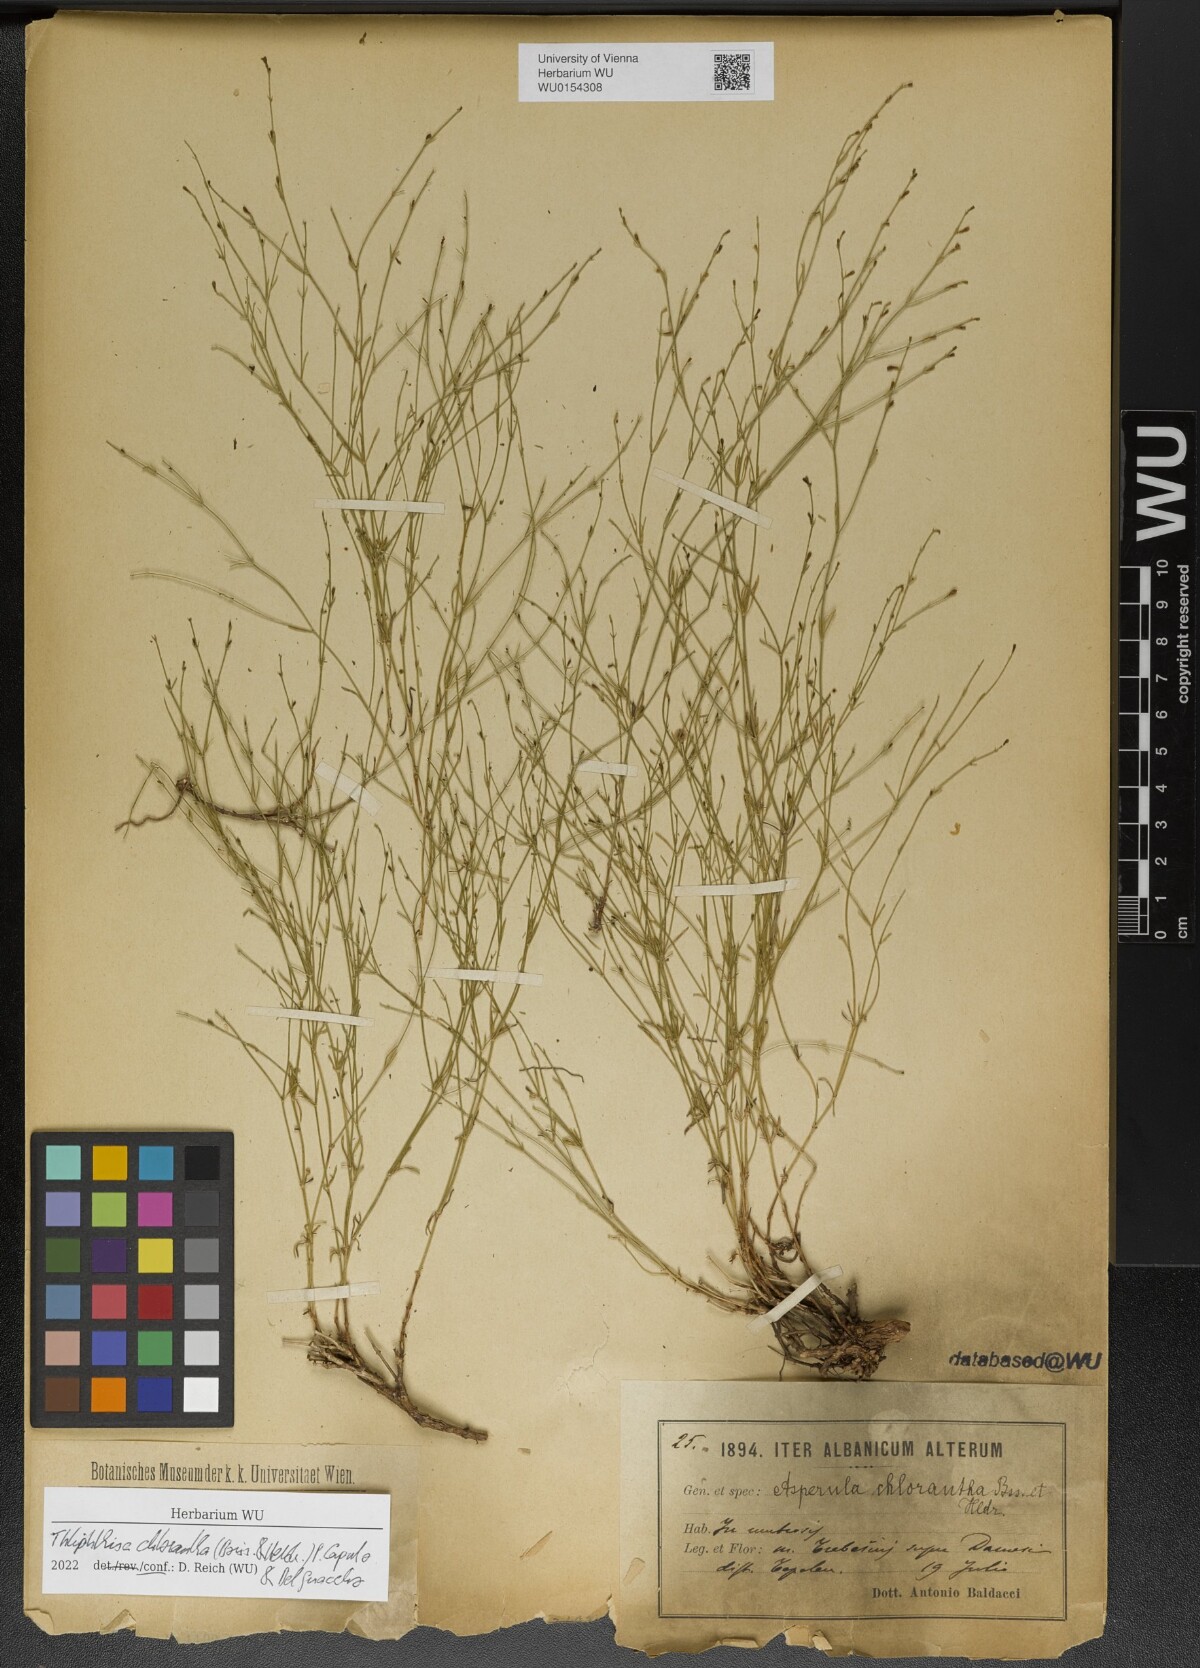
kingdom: Plantae
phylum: Tracheophyta
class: Magnoliopsida
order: Gentianales
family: Rubiaceae
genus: Thliphthisa
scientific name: Thliphthisa chlorantha
